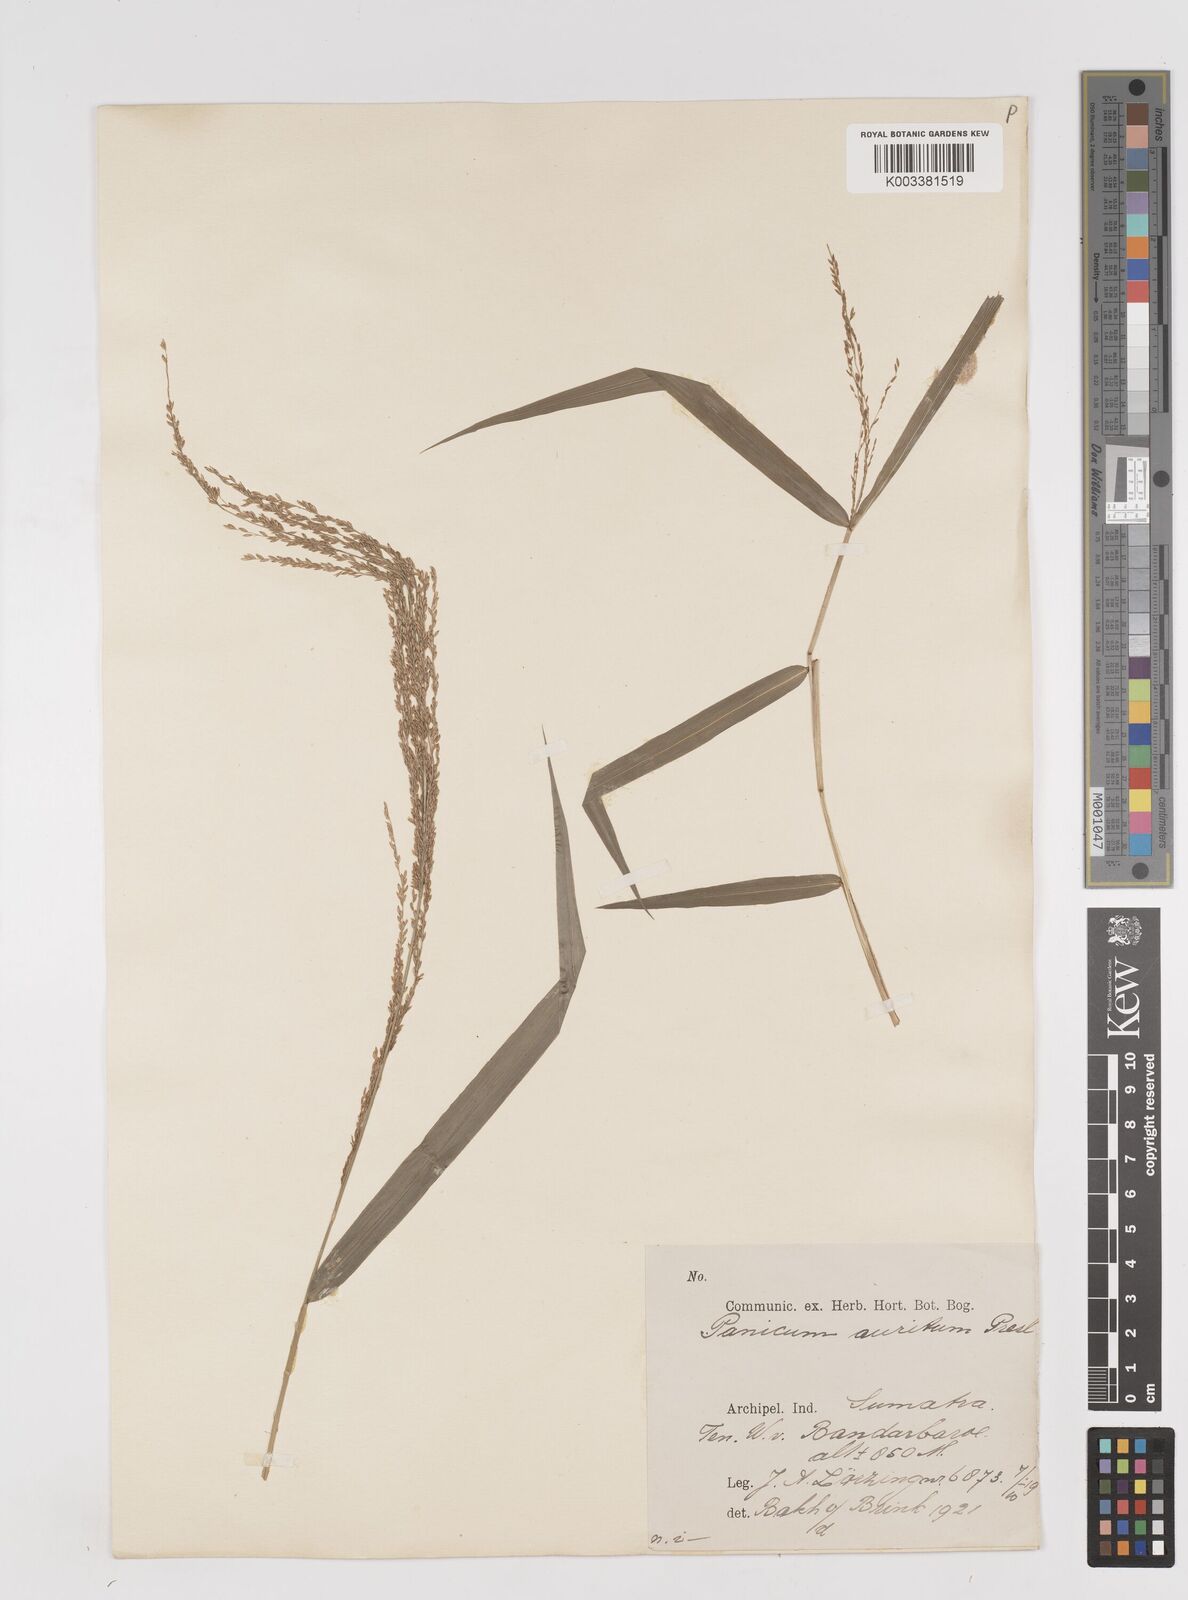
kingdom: Plantae
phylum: Tracheophyta
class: Liliopsida
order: Poales
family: Poaceae
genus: Ottochloa
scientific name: Ottochloa nodosa
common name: Slender-panic grass
